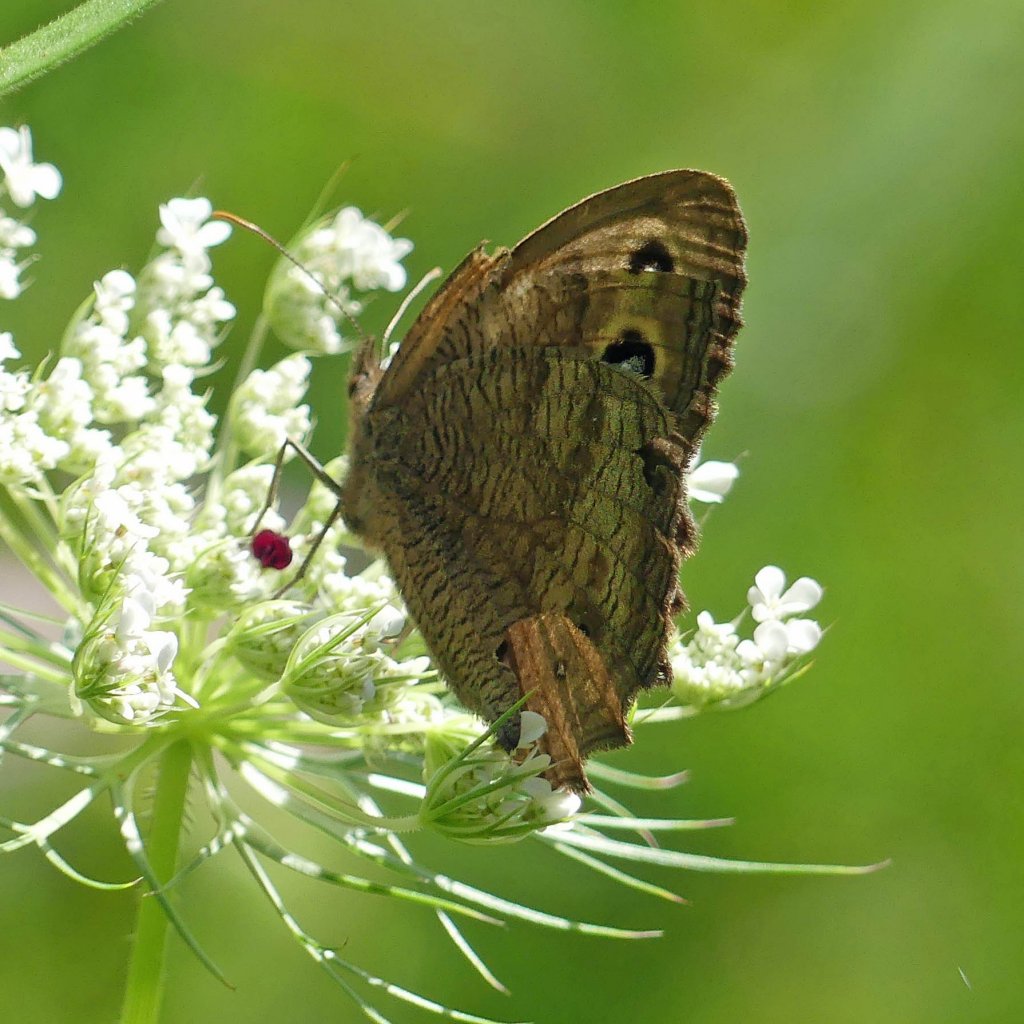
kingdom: Animalia
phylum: Arthropoda
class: Insecta
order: Lepidoptera
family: Nymphalidae
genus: Cercyonis
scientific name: Cercyonis pegala
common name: Common Wood-Nymph
